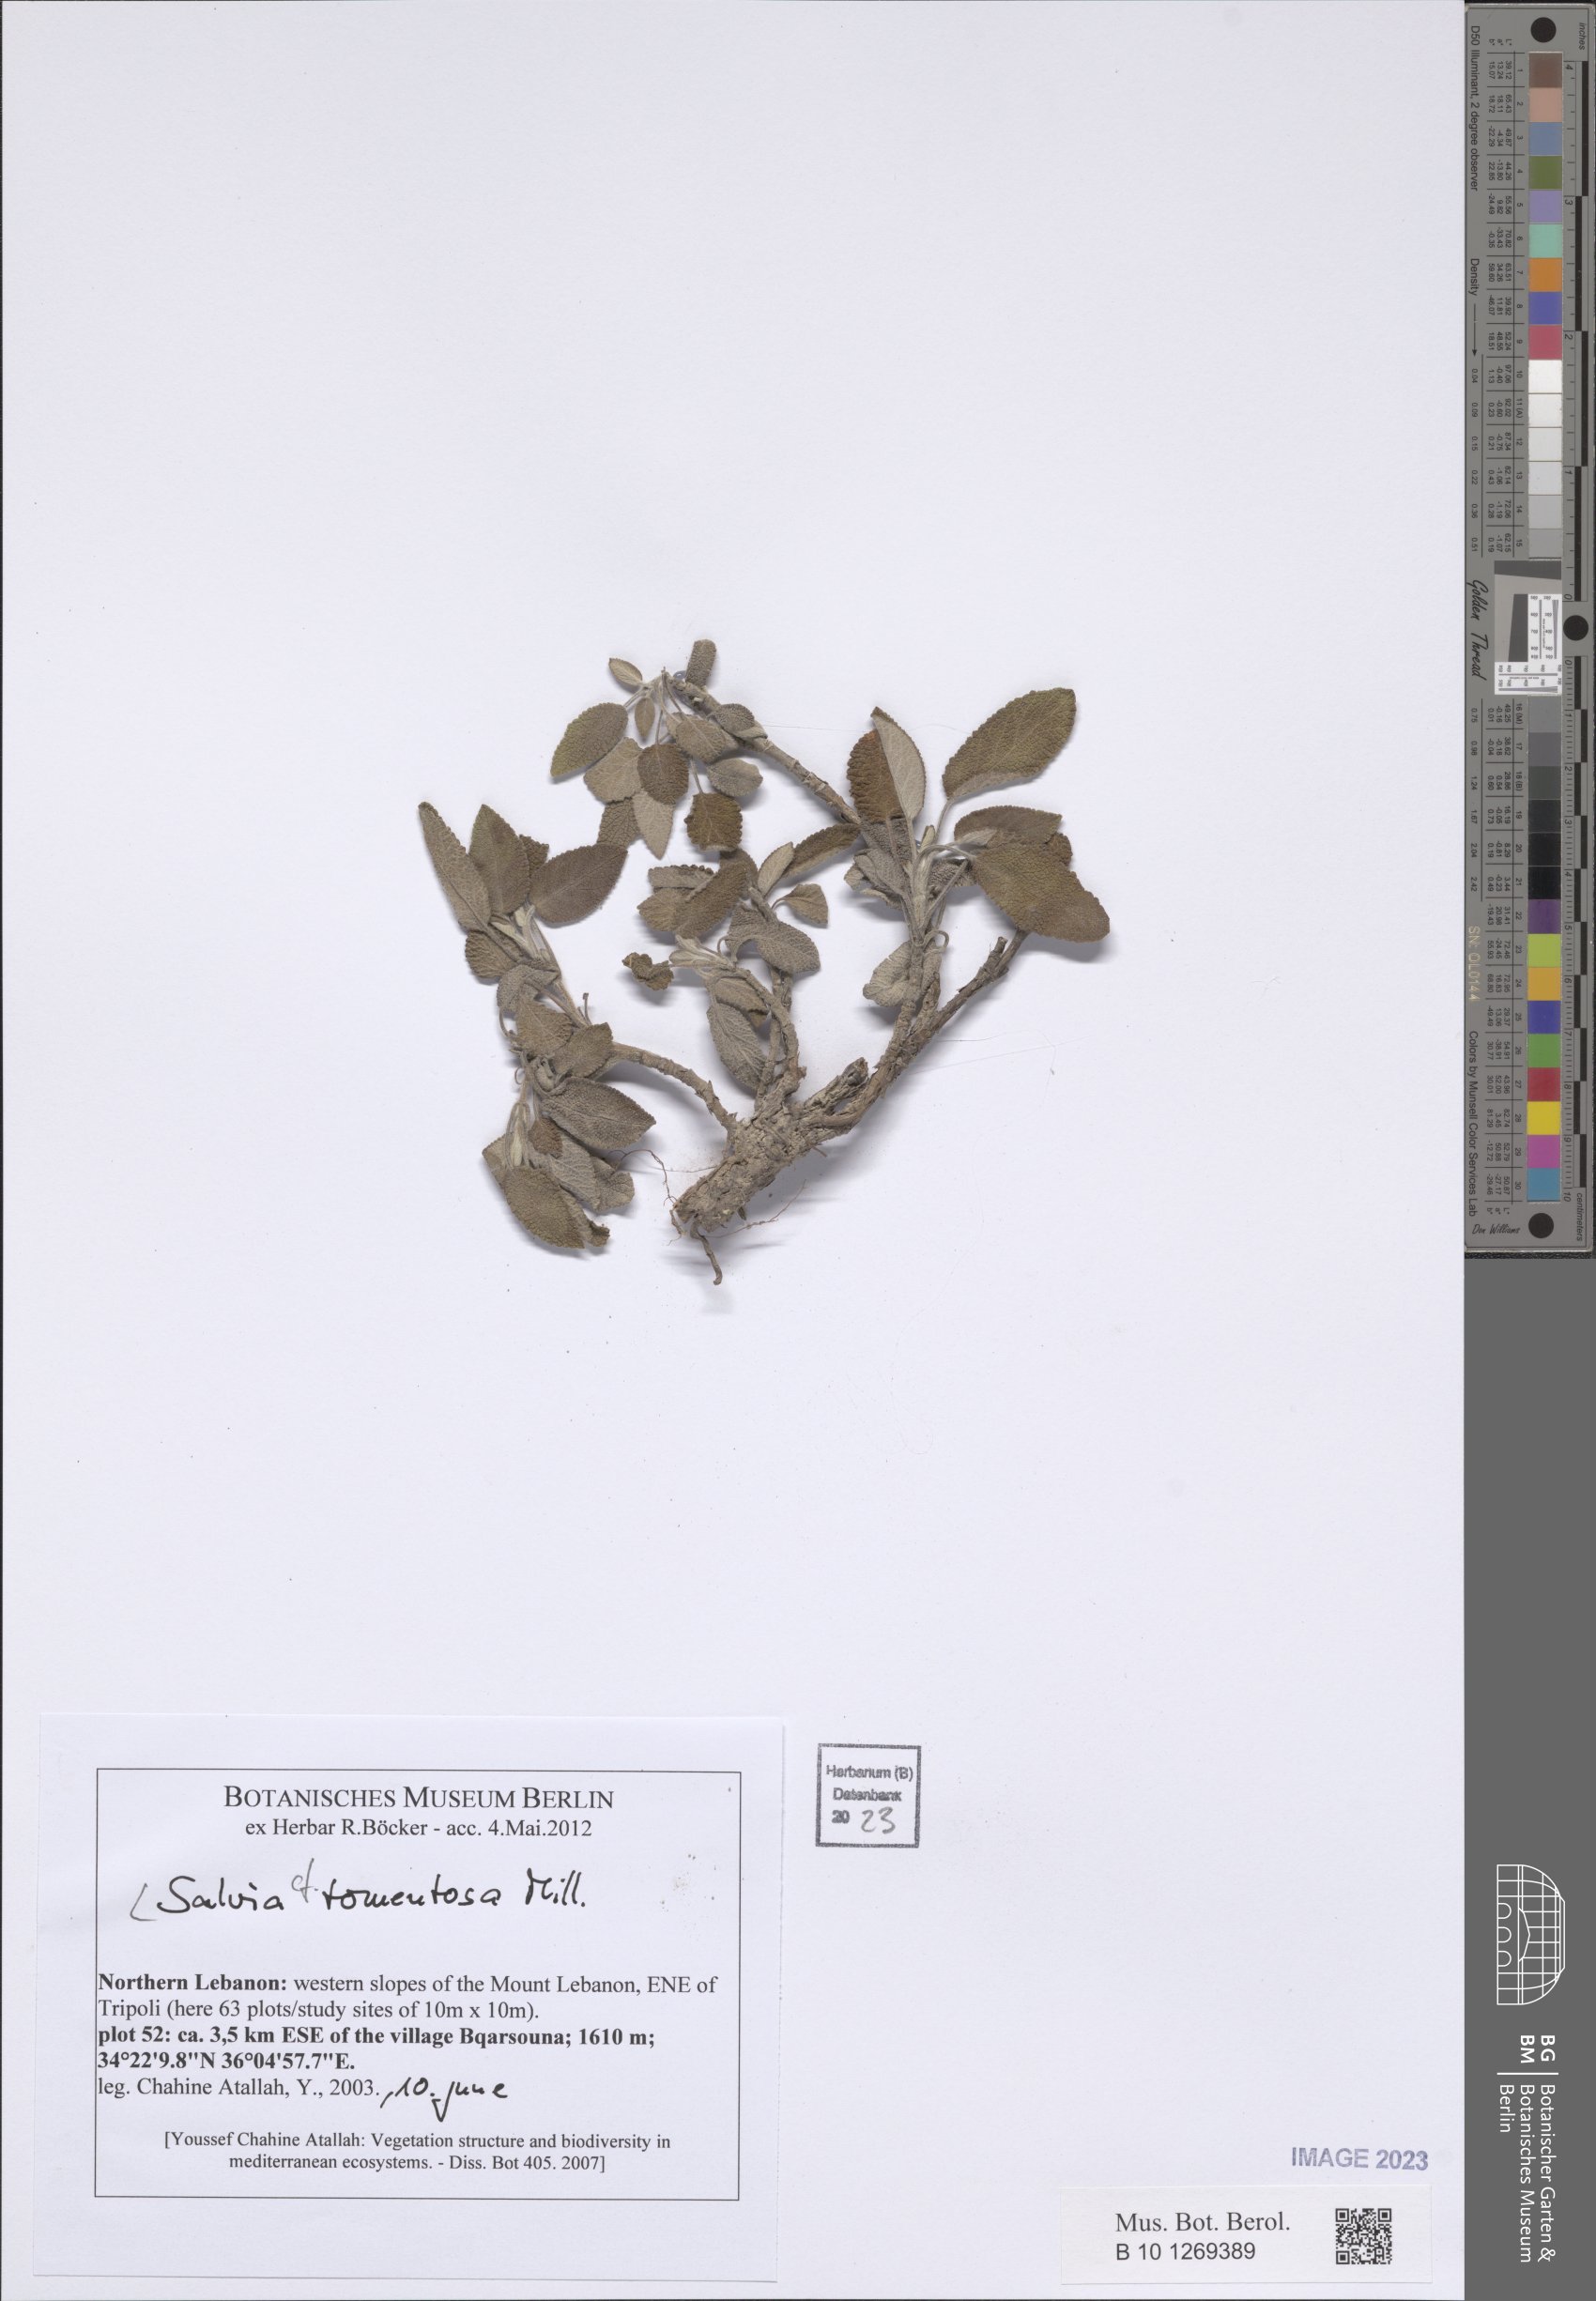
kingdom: Plantae
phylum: Tracheophyta
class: Magnoliopsida
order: Lamiales
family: Lamiaceae
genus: Salvia
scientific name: Salvia tomentosa
